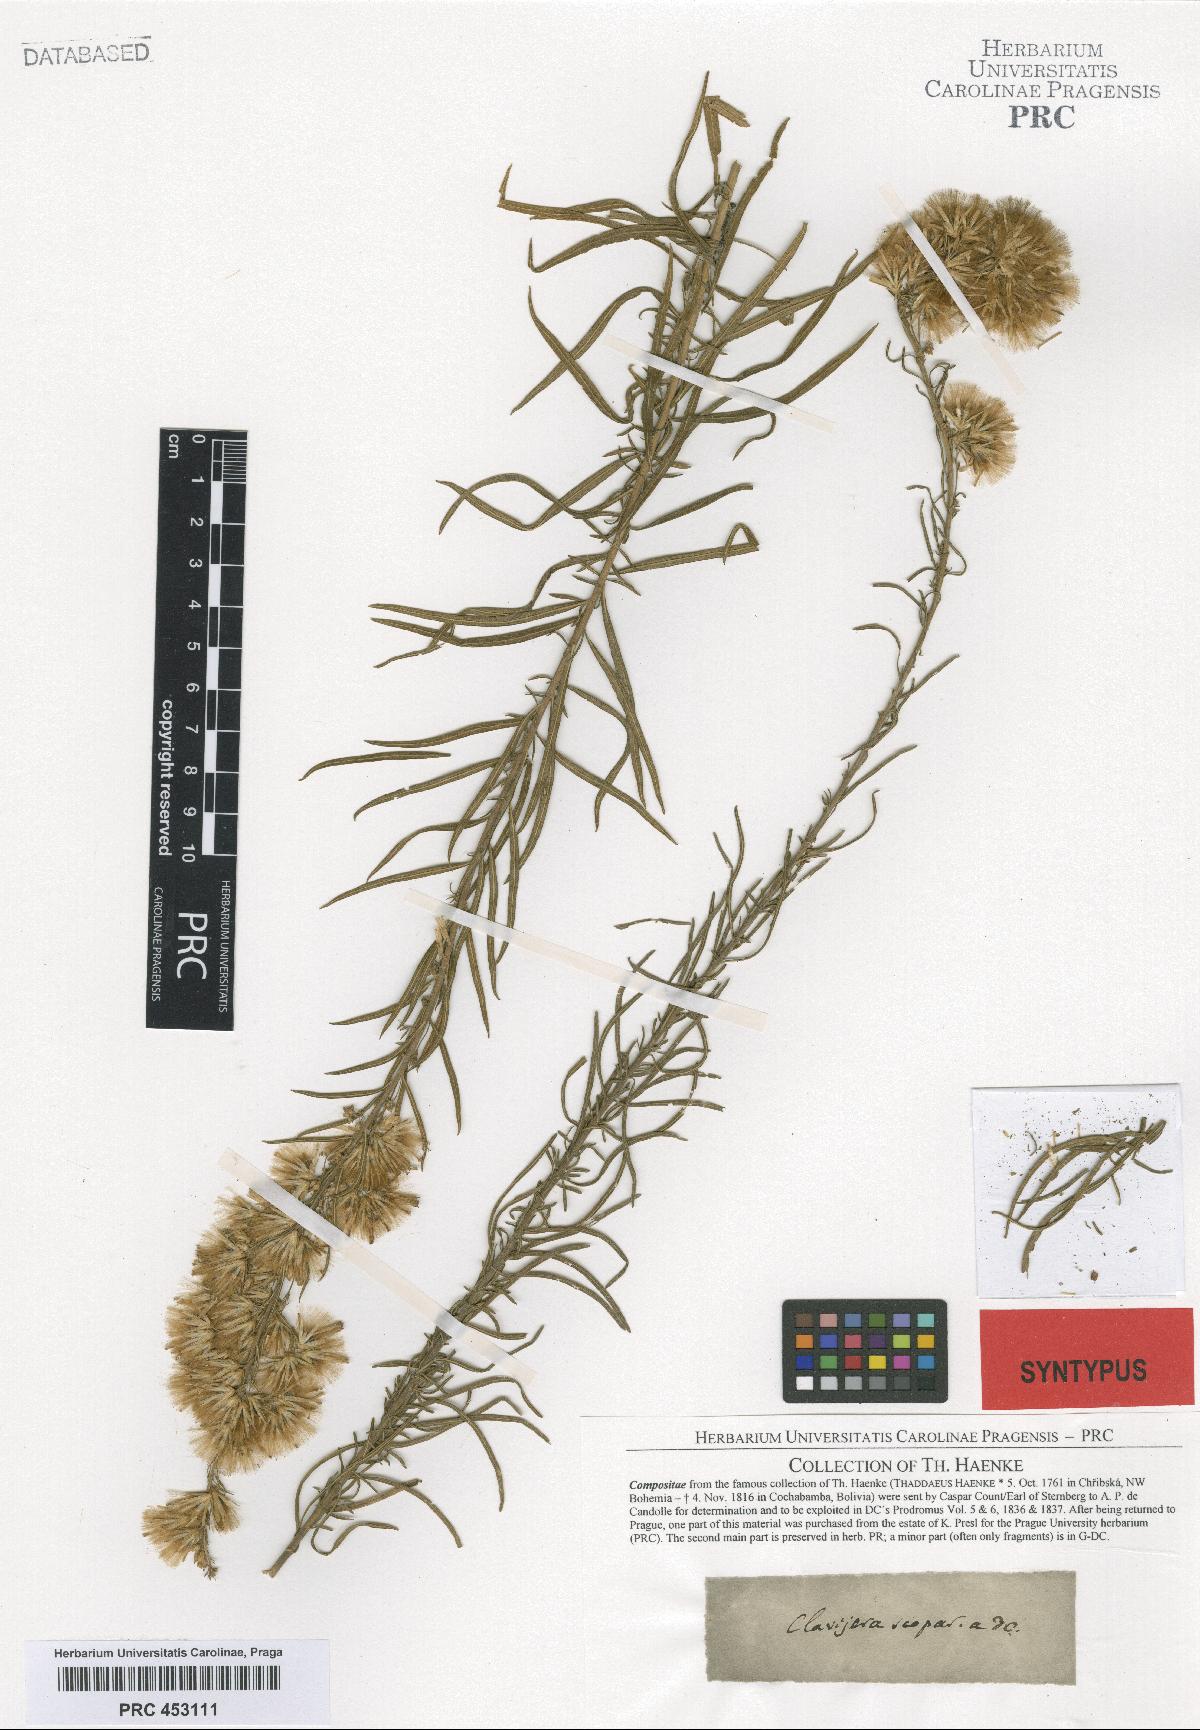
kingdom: Plantae
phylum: Tracheophyta
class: Magnoliopsida
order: Asterales
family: Asteraceae
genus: Brickellia
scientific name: Brickellia scoparia
